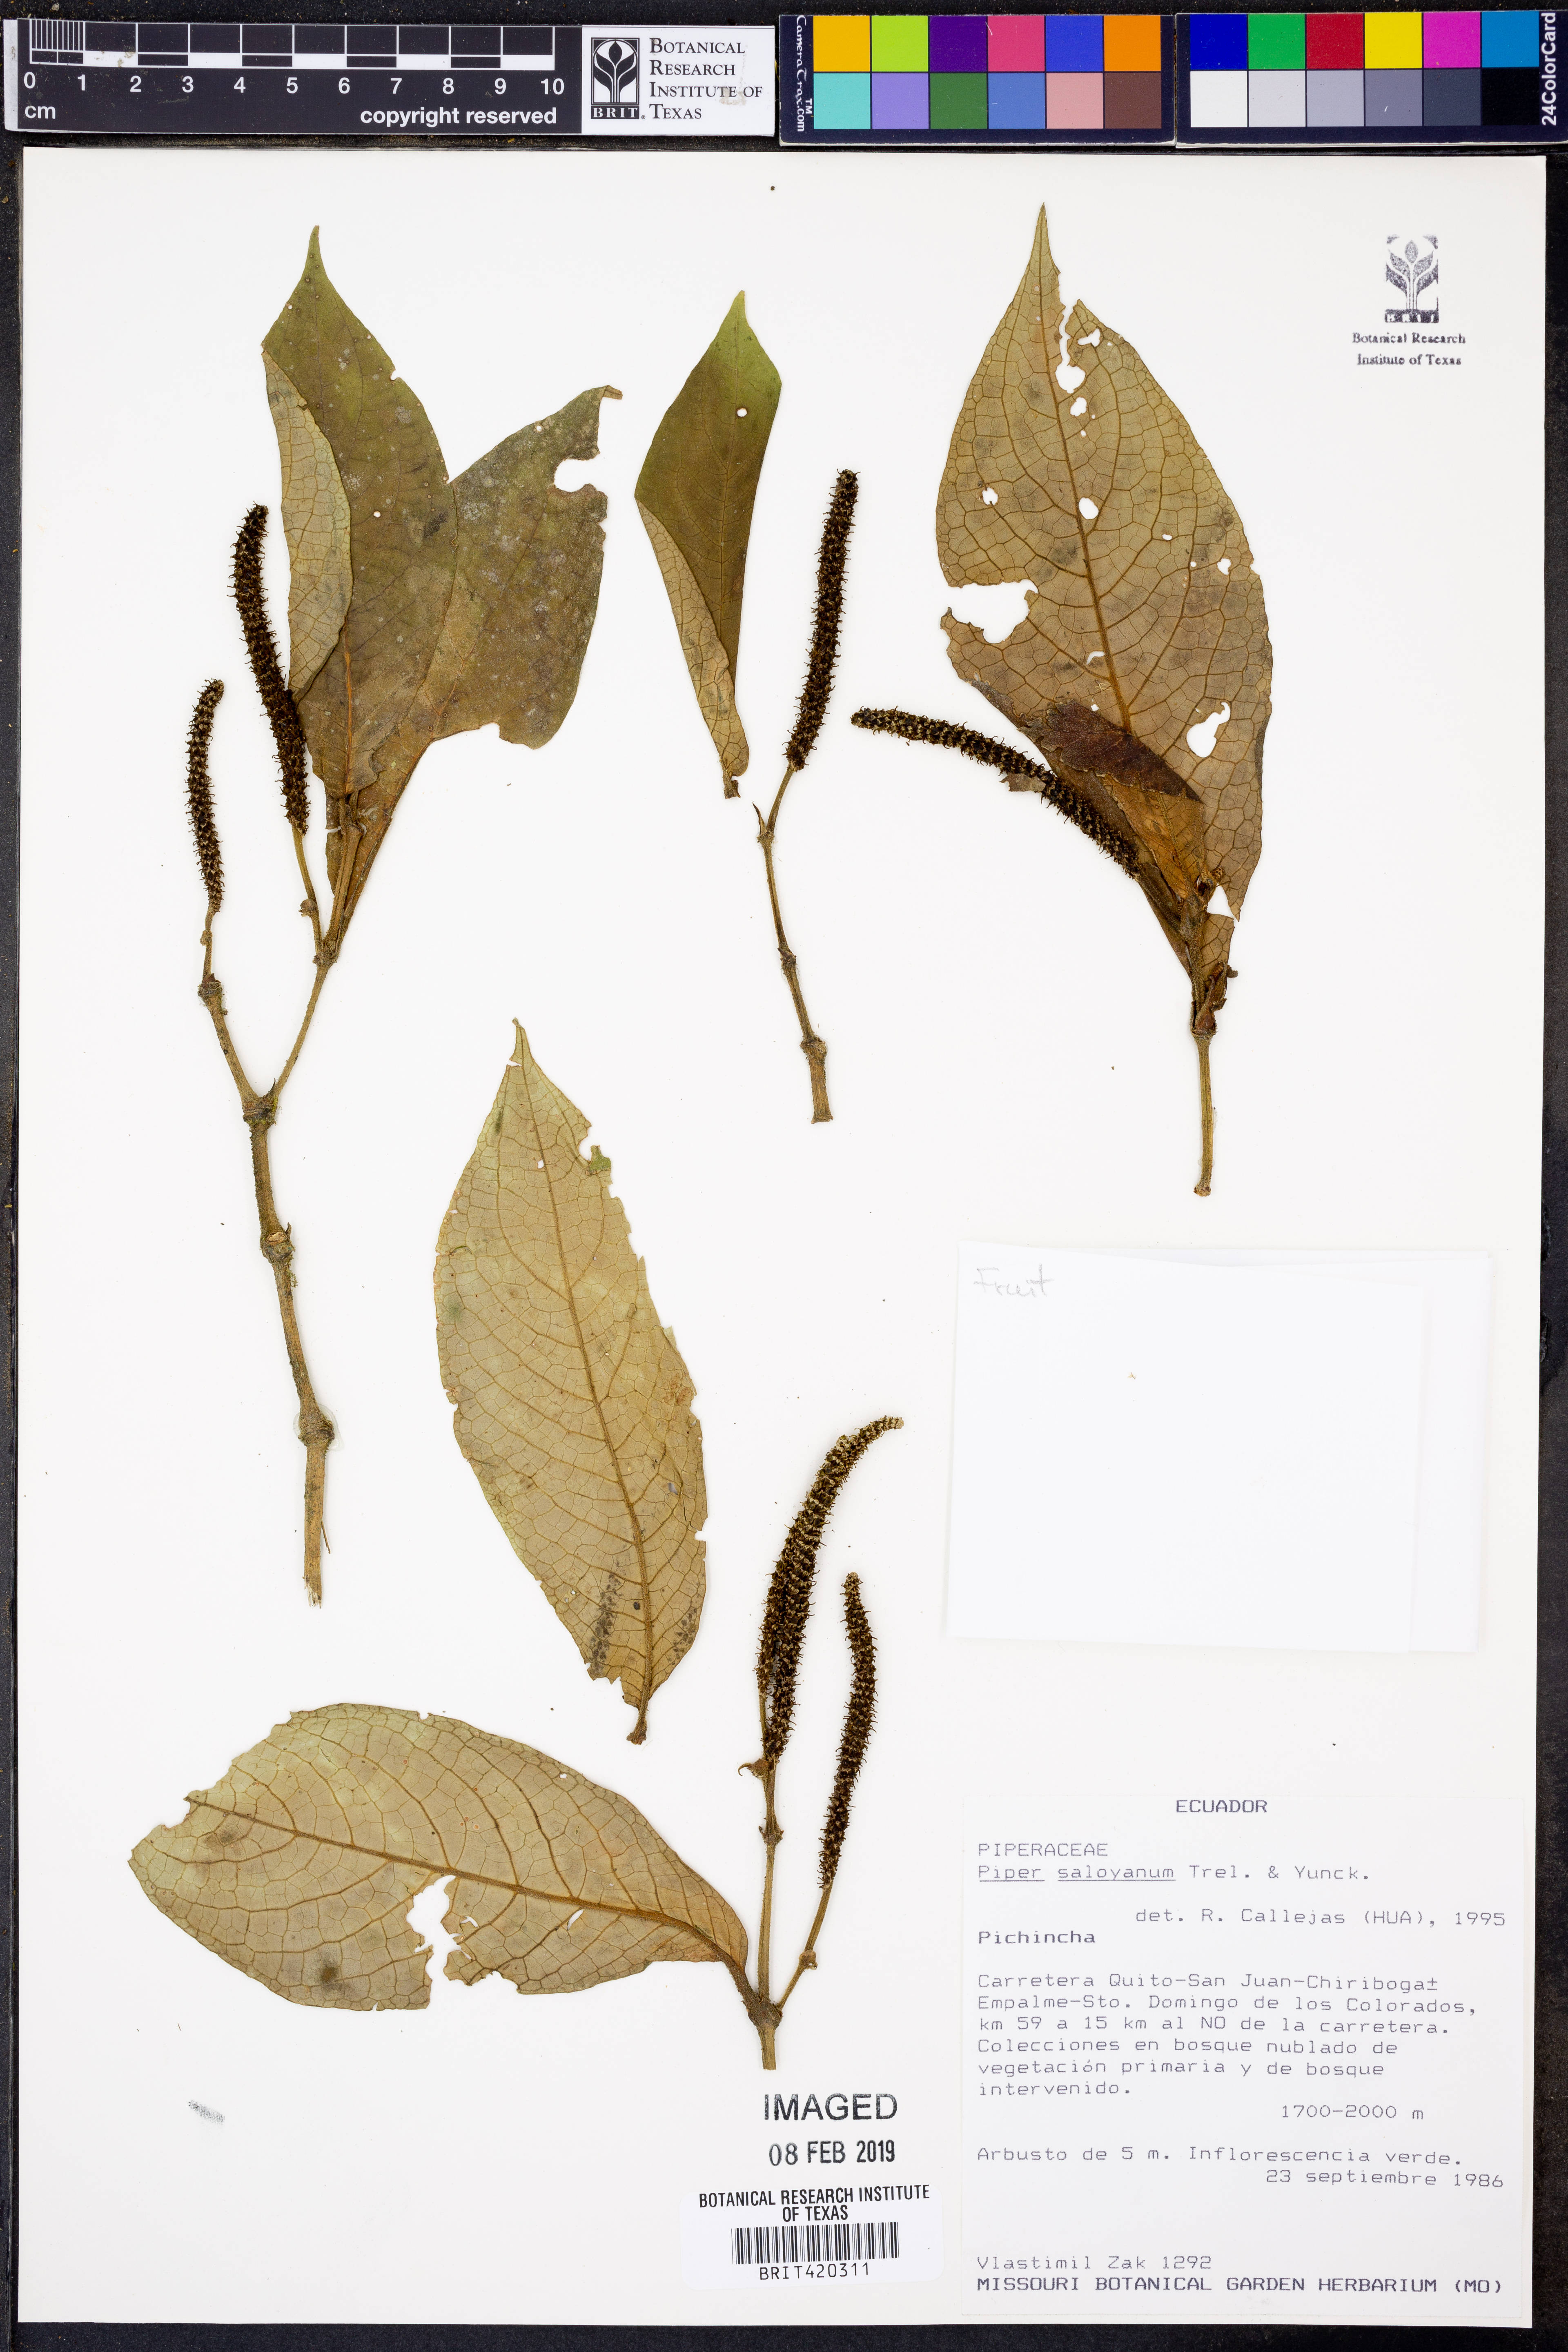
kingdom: Plantae
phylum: Tracheophyta
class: Magnoliopsida
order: Piperales
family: Piperaceae
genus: Piper
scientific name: Piper saloyanum
